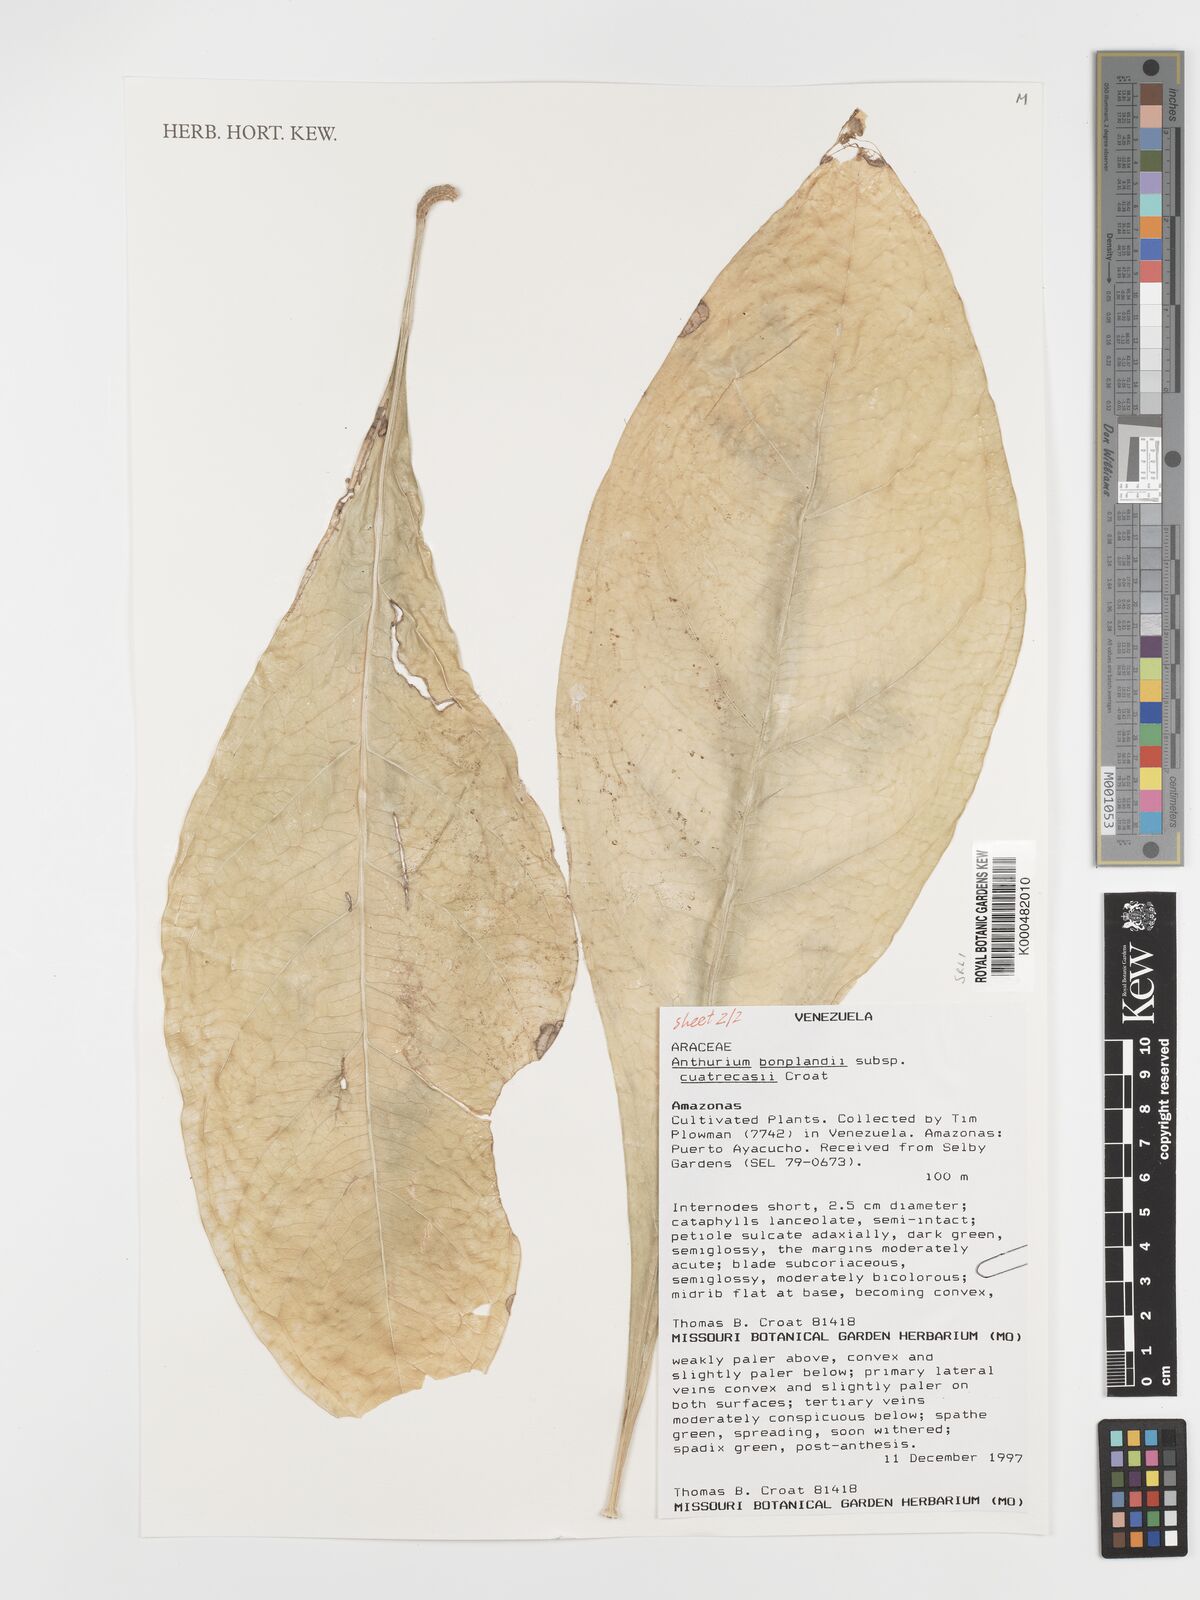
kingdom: Plantae
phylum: Tracheophyta
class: Liliopsida
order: Alismatales
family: Araceae
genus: Anthurium
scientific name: Anthurium
